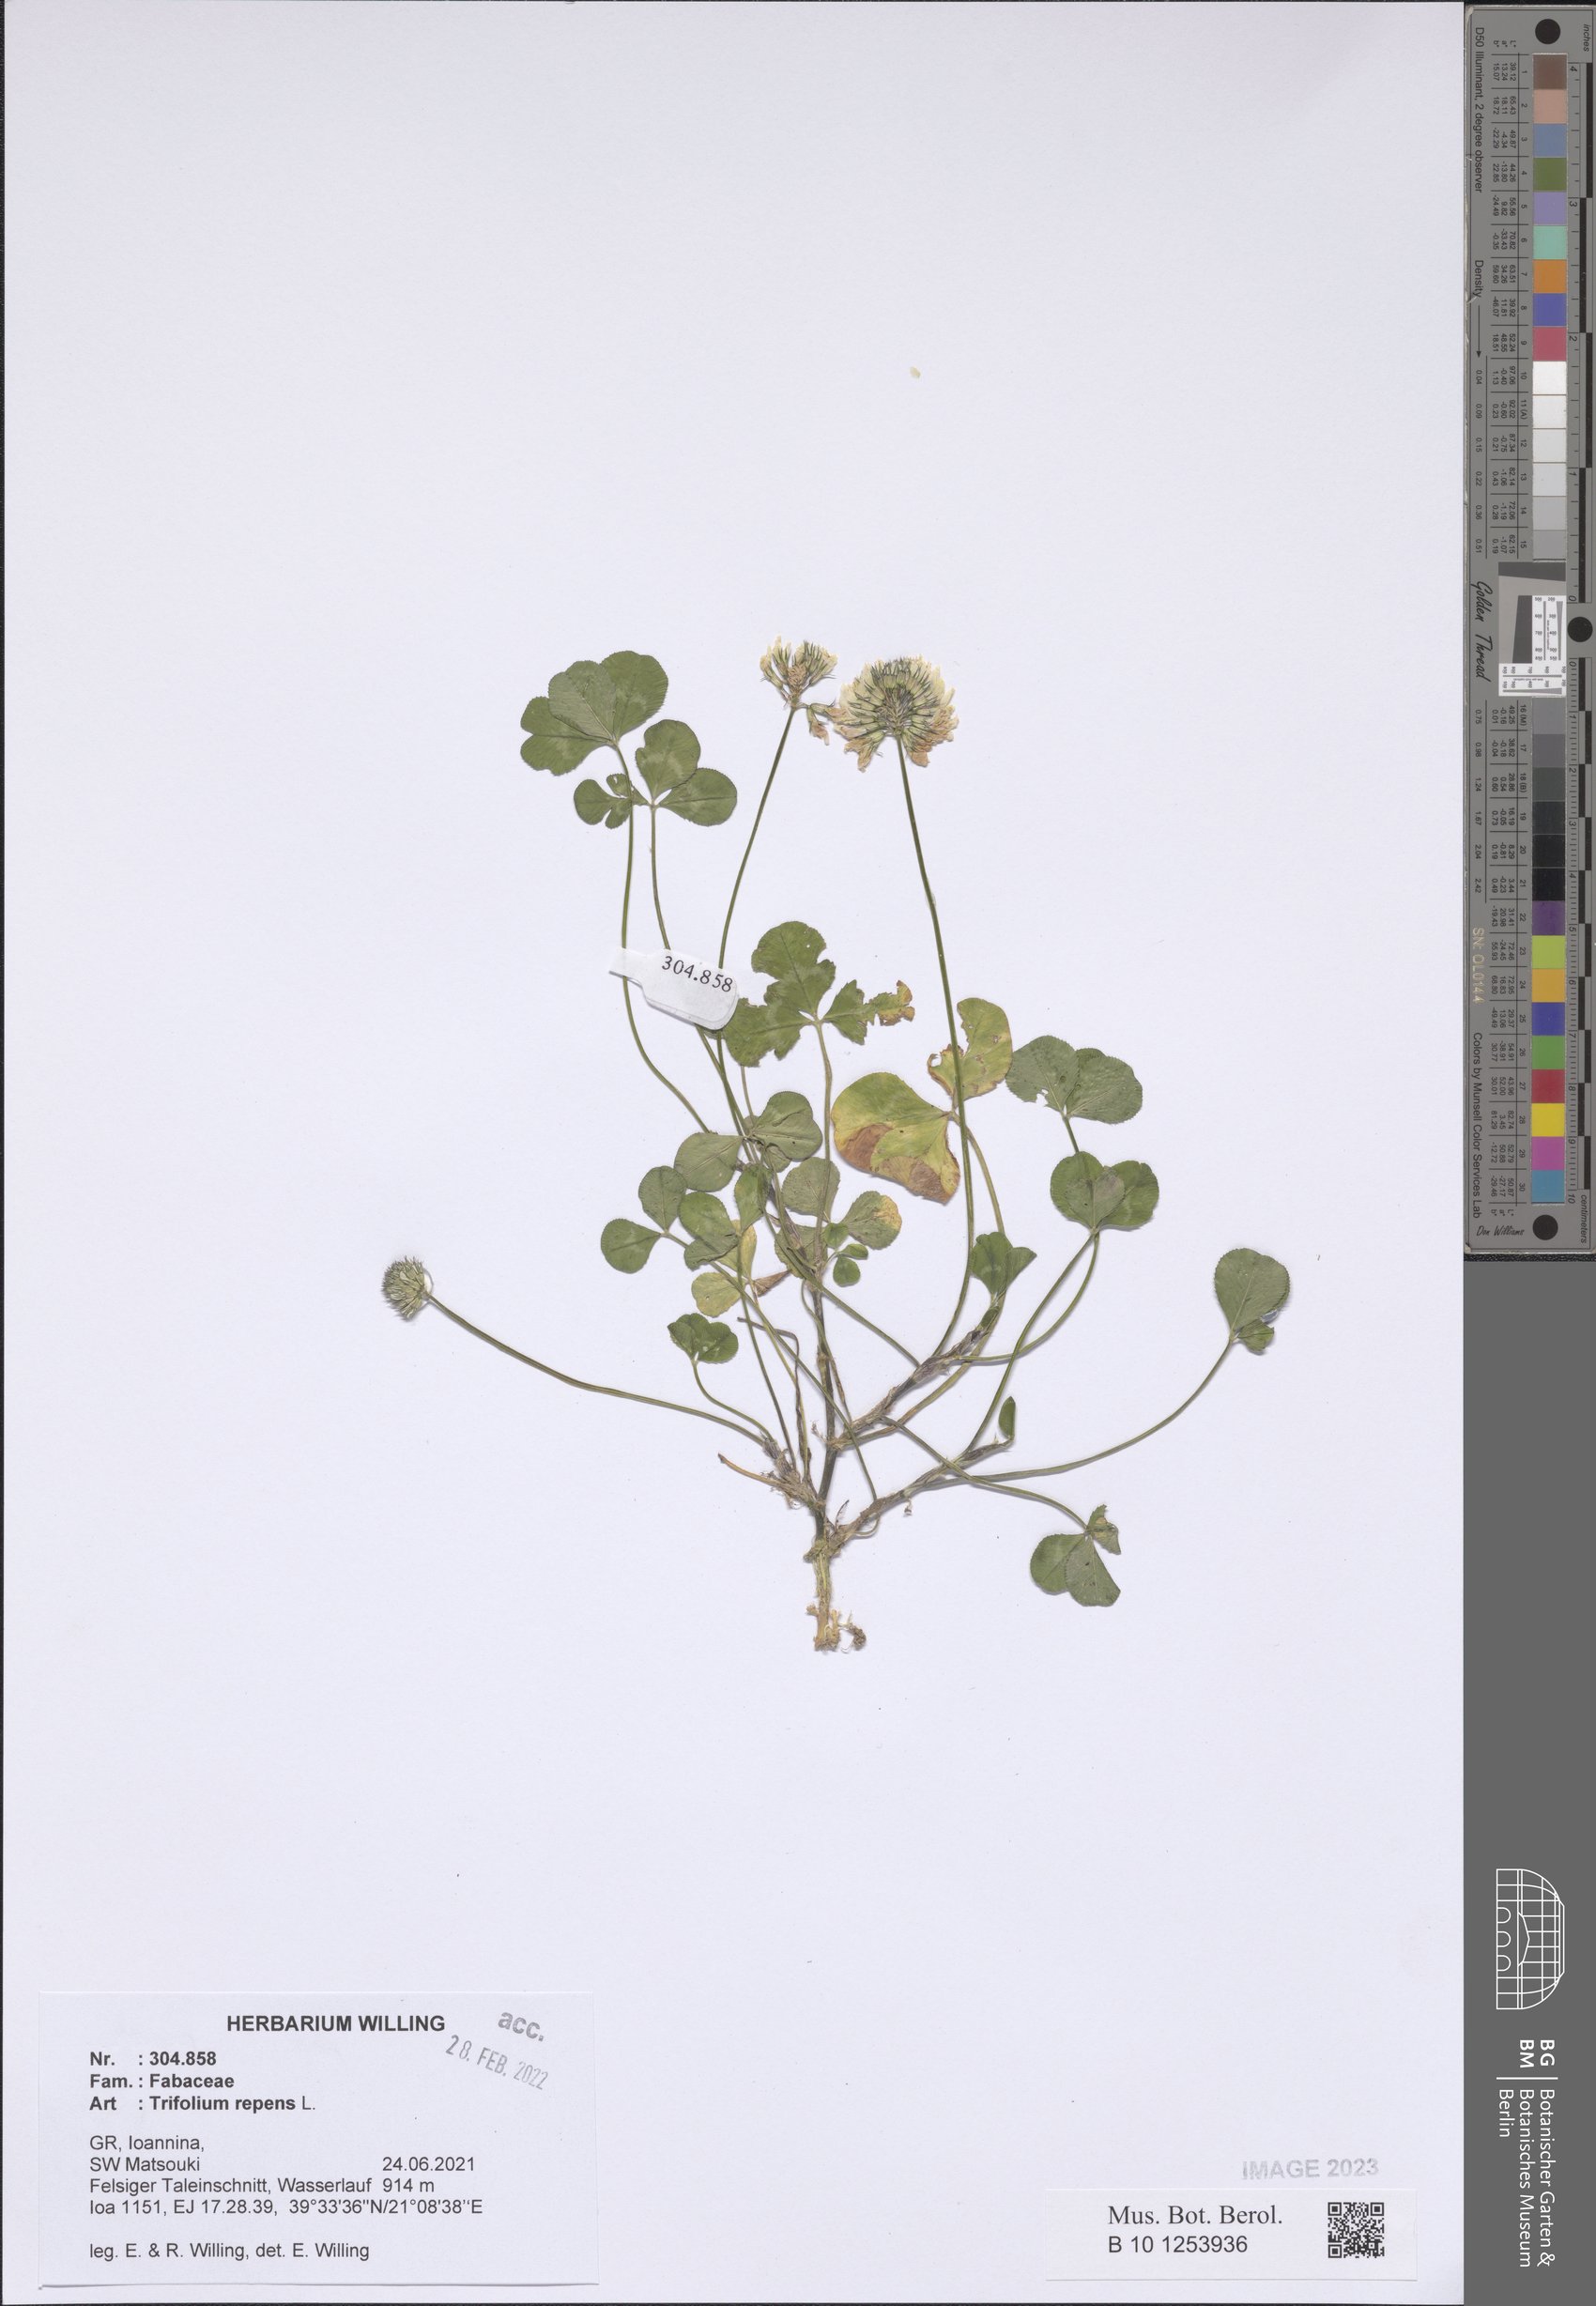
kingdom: Plantae
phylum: Tracheophyta
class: Magnoliopsida
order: Fabales
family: Fabaceae
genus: Trifolium
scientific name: Trifolium repens
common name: White clover
